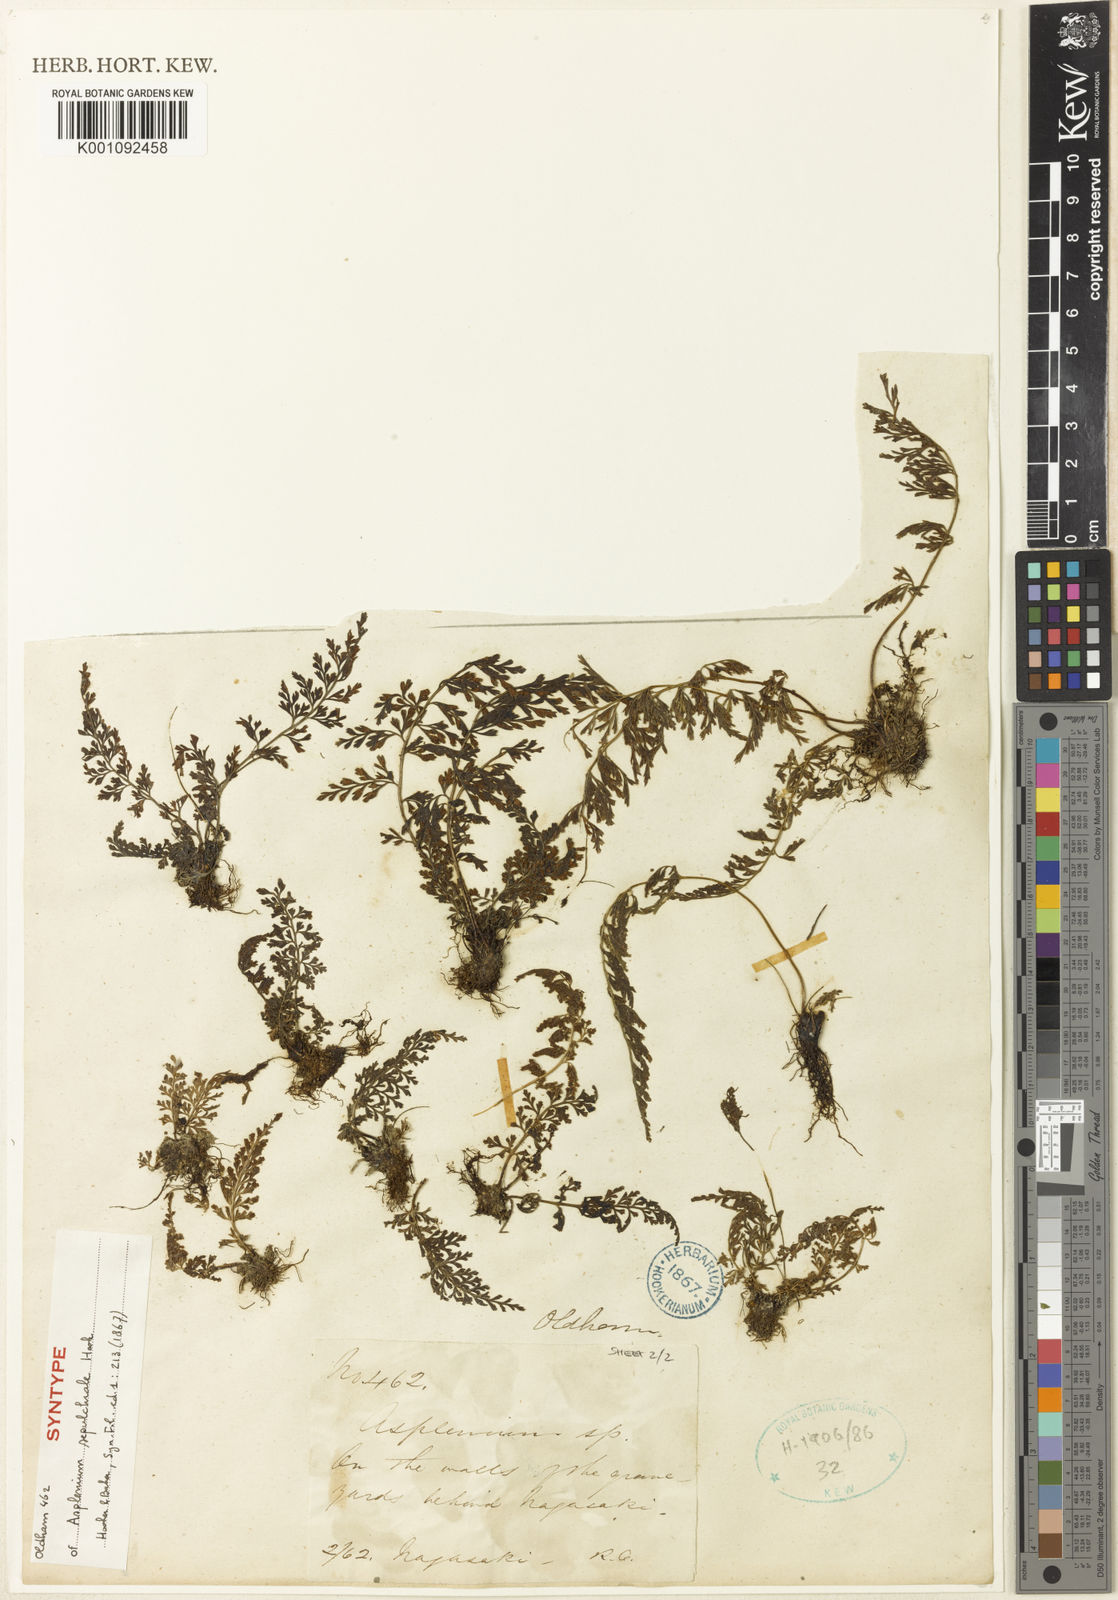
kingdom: Plantae
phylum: Tracheophyta
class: Polypodiopsida
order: Polypodiales
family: Aspleniaceae
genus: Asplenium
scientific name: Asplenium sarelii
